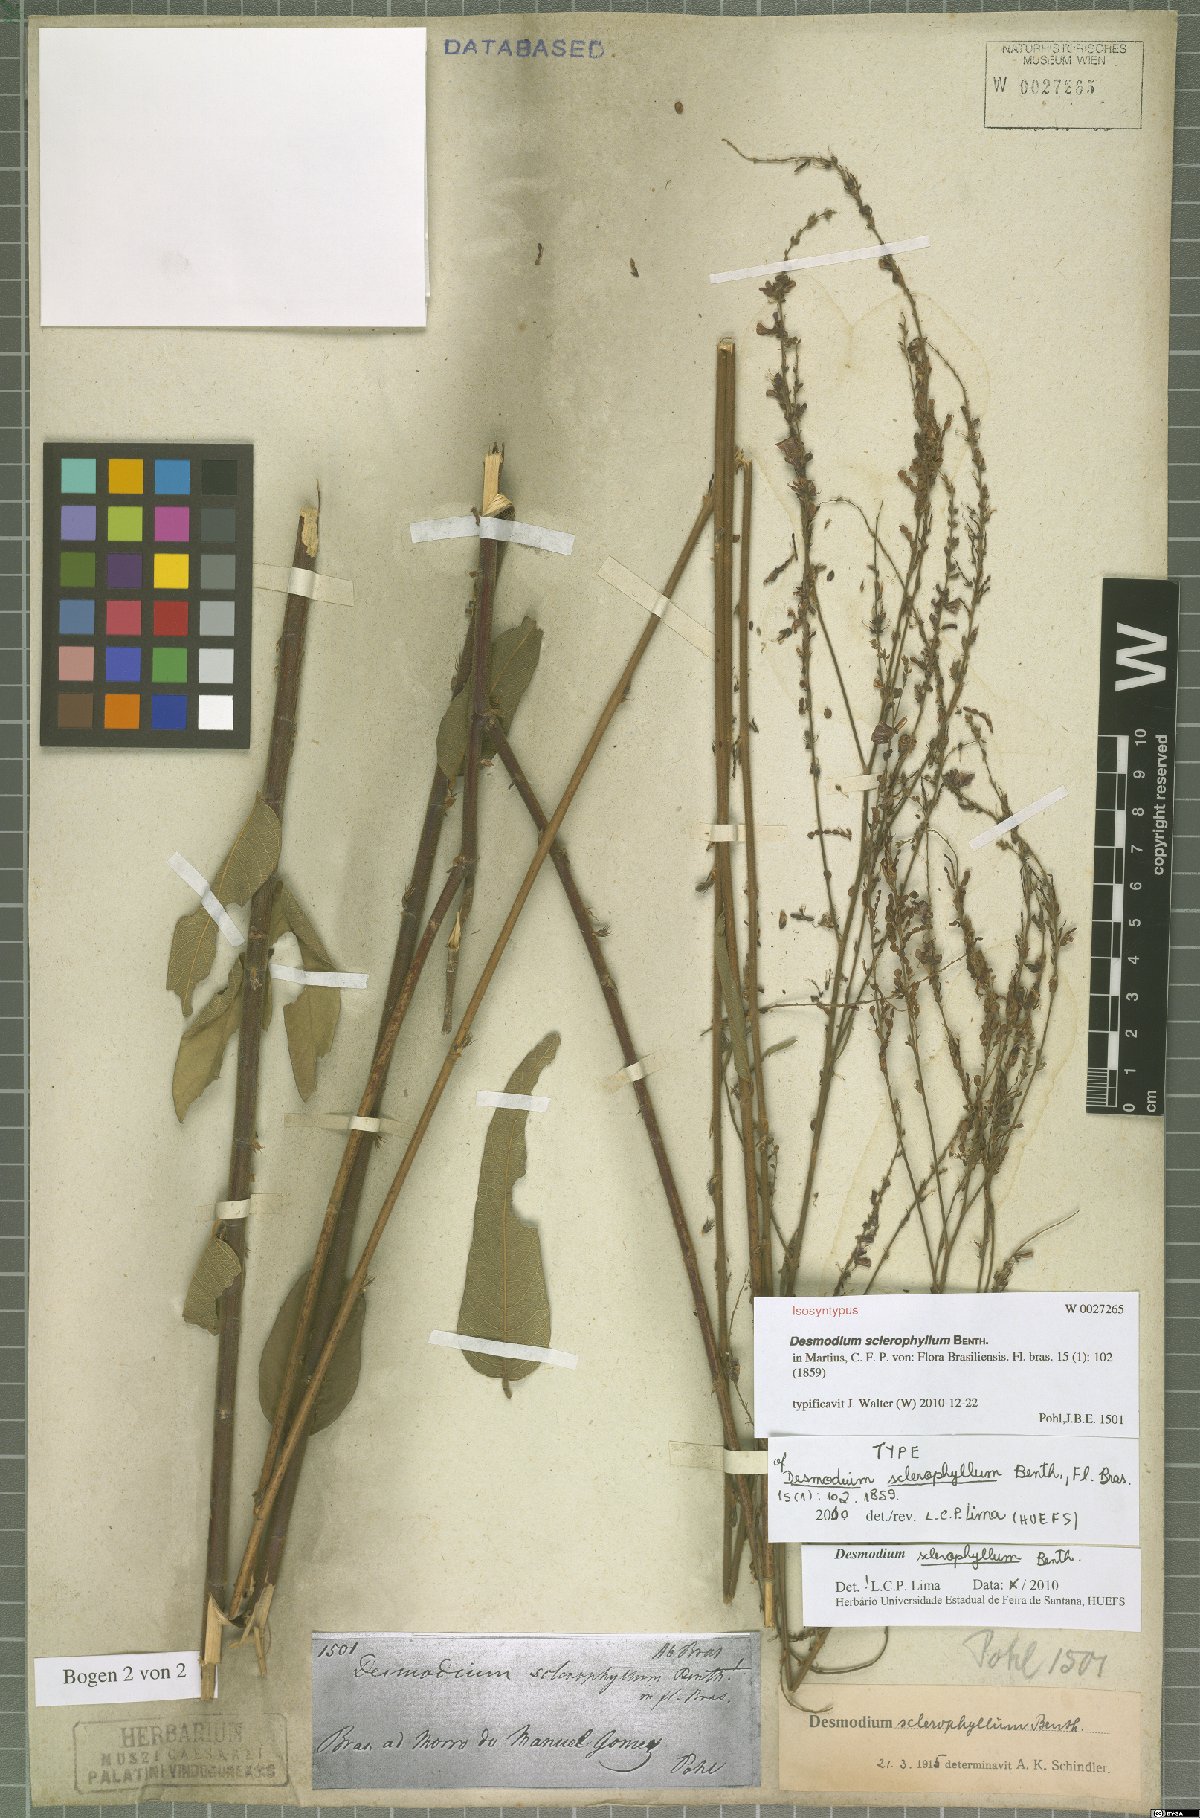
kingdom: Plantae
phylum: Tracheophyta
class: Magnoliopsida
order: Fabales
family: Fabaceae
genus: Desmodium
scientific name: Desmodium sclerophyllum
